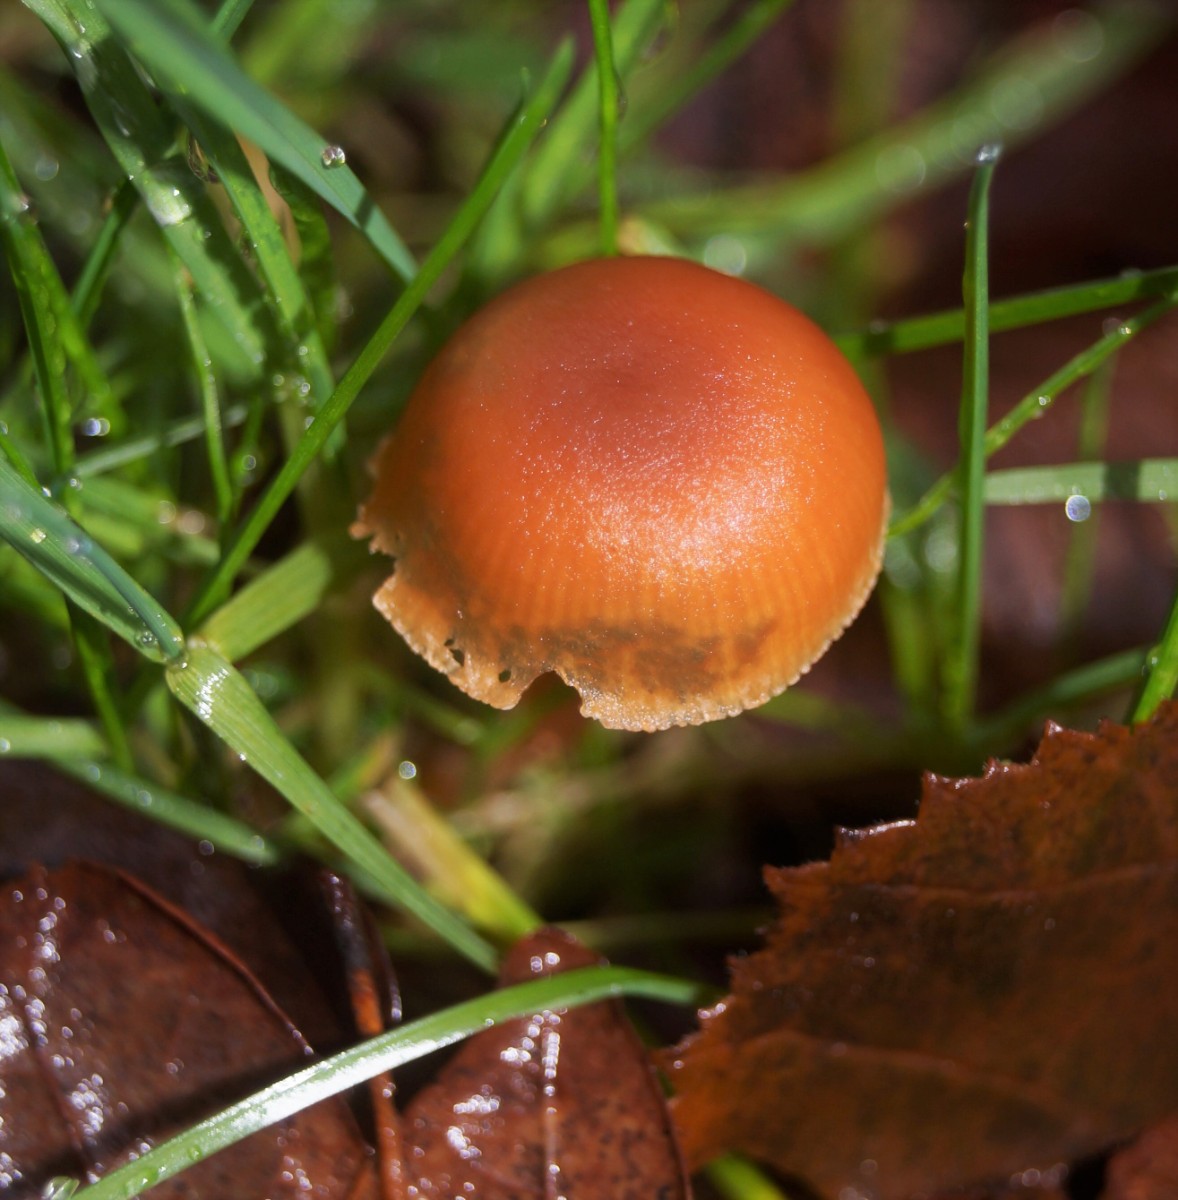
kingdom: Fungi
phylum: Basidiomycota
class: Agaricomycetes
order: Agaricales
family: Tubariaceae
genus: Tubaria
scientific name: Tubaria furfuracea
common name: kliddet fnughat
